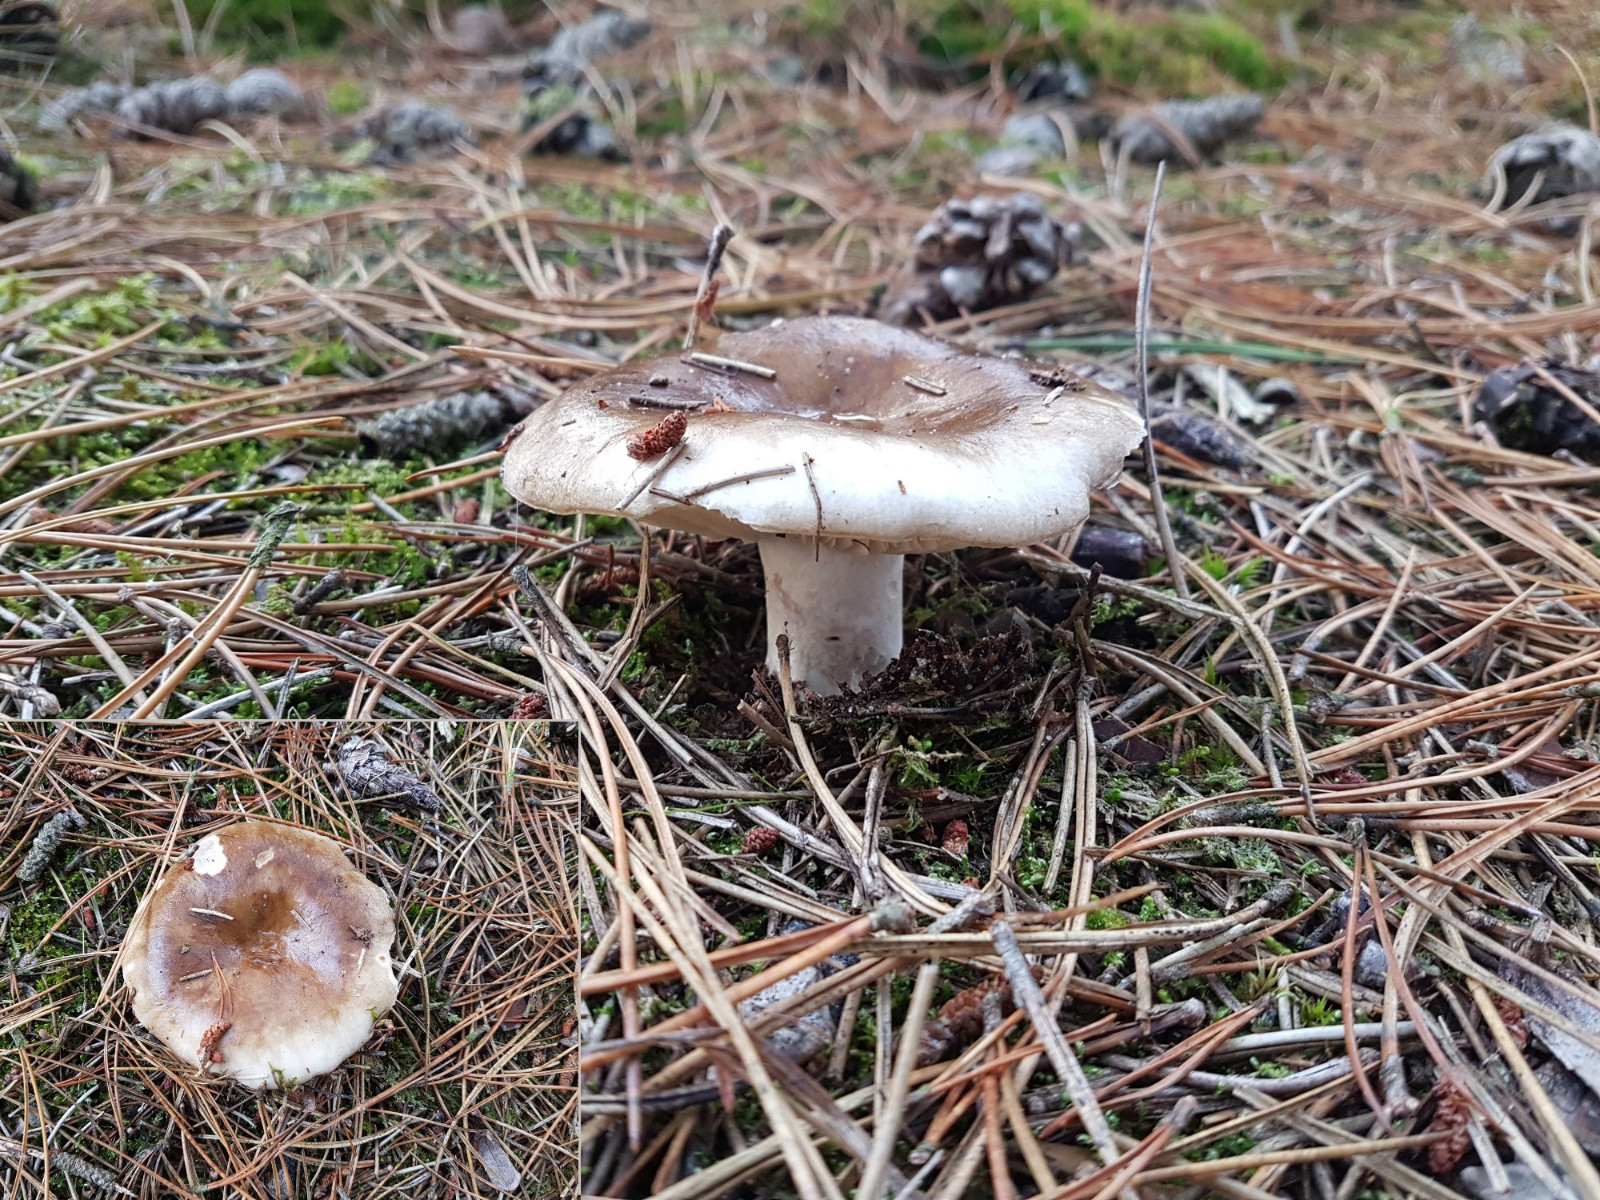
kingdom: Fungi
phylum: Basidiomycota
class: Agaricomycetes
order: Russulales
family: Russulaceae
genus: Russula
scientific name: Russula adusta
